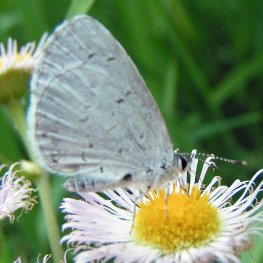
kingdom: Animalia
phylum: Arthropoda
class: Insecta
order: Lepidoptera
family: Lycaenidae
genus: Celastrina
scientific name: Celastrina serotina
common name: Cherry Gall Azure
